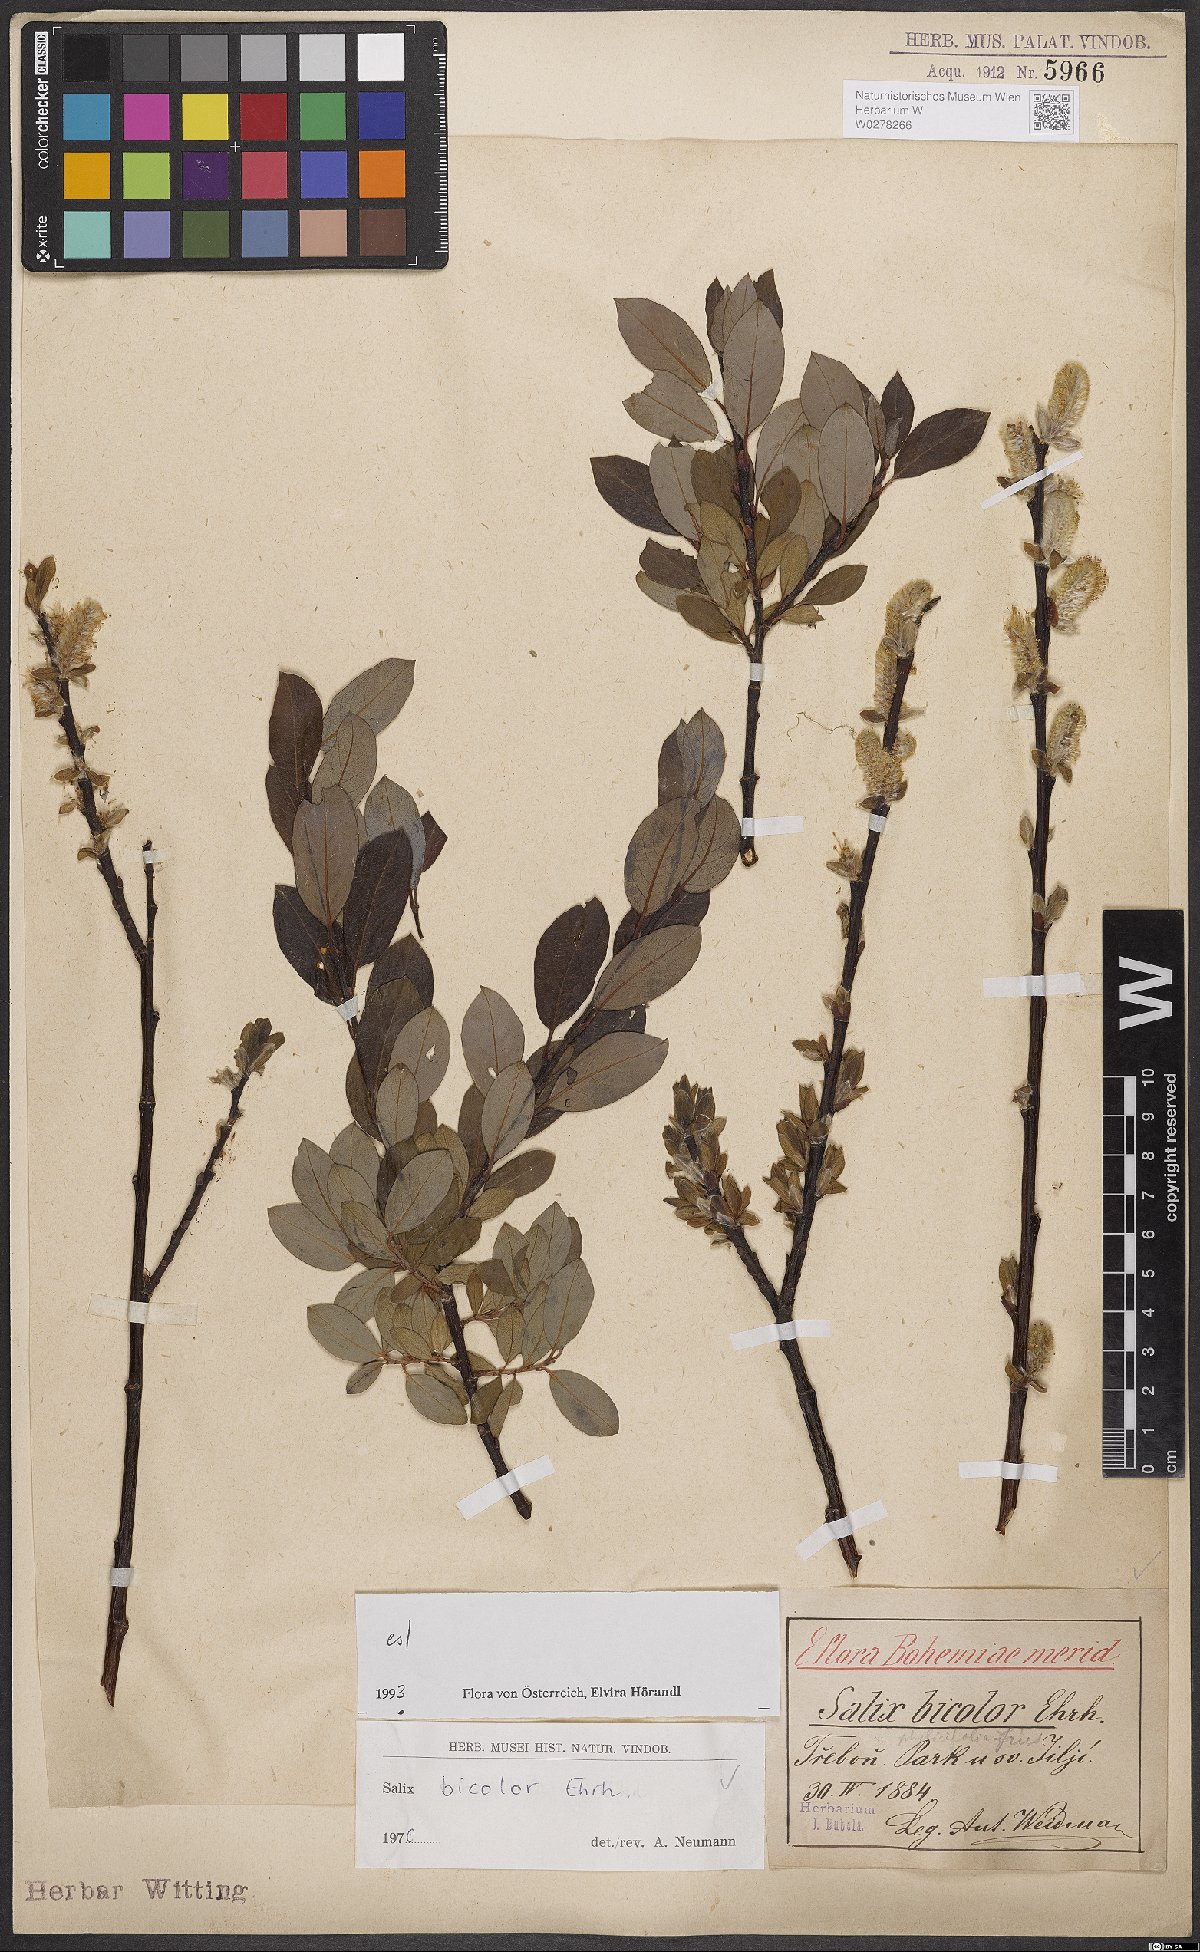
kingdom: Plantae
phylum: Tracheophyta
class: Magnoliopsida
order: Malpighiales
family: Salicaceae
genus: Salix
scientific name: Salix bicolor
